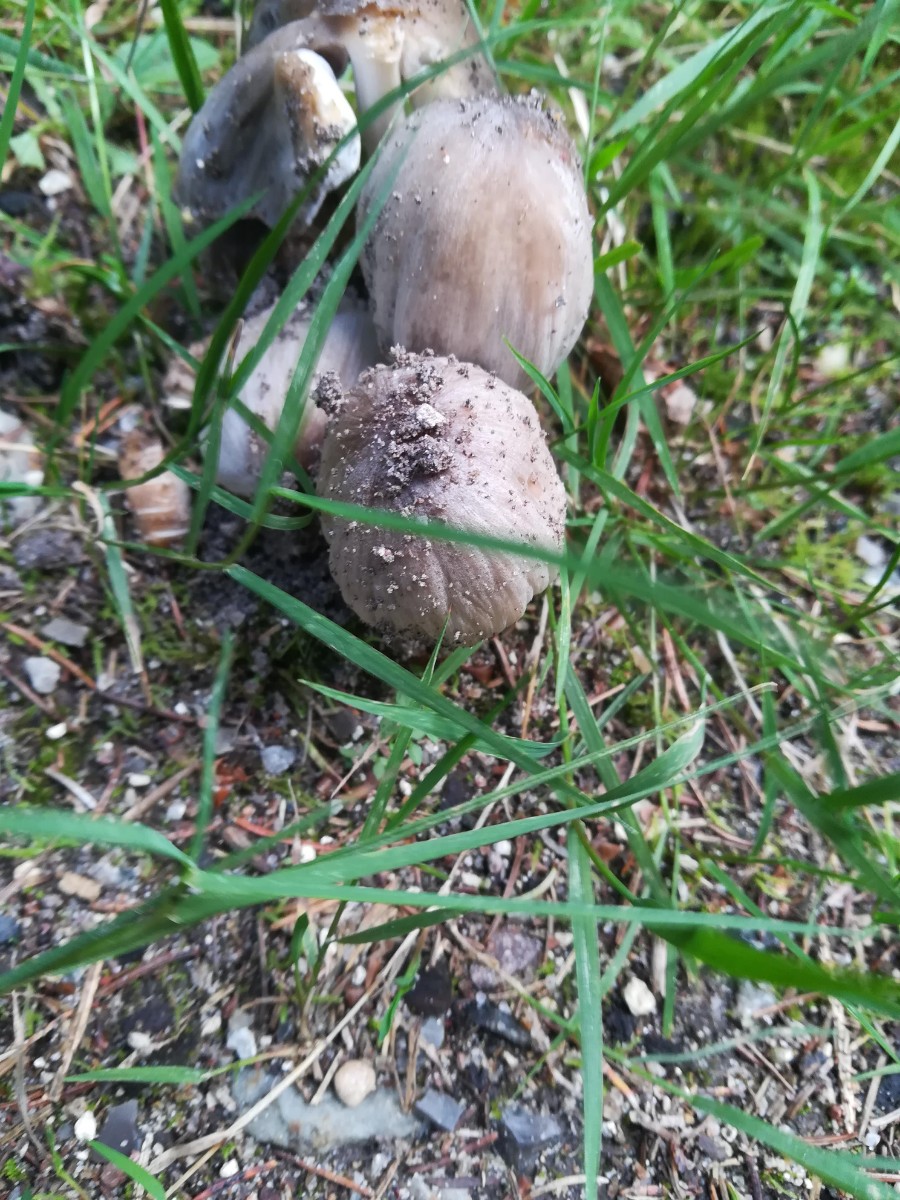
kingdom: Fungi
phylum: Basidiomycota
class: Agaricomycetes
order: Agaricales
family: Psathyrellaceae
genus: Coprinopsis
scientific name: Coprinopsis atramentaria
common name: almindelig blækhat
